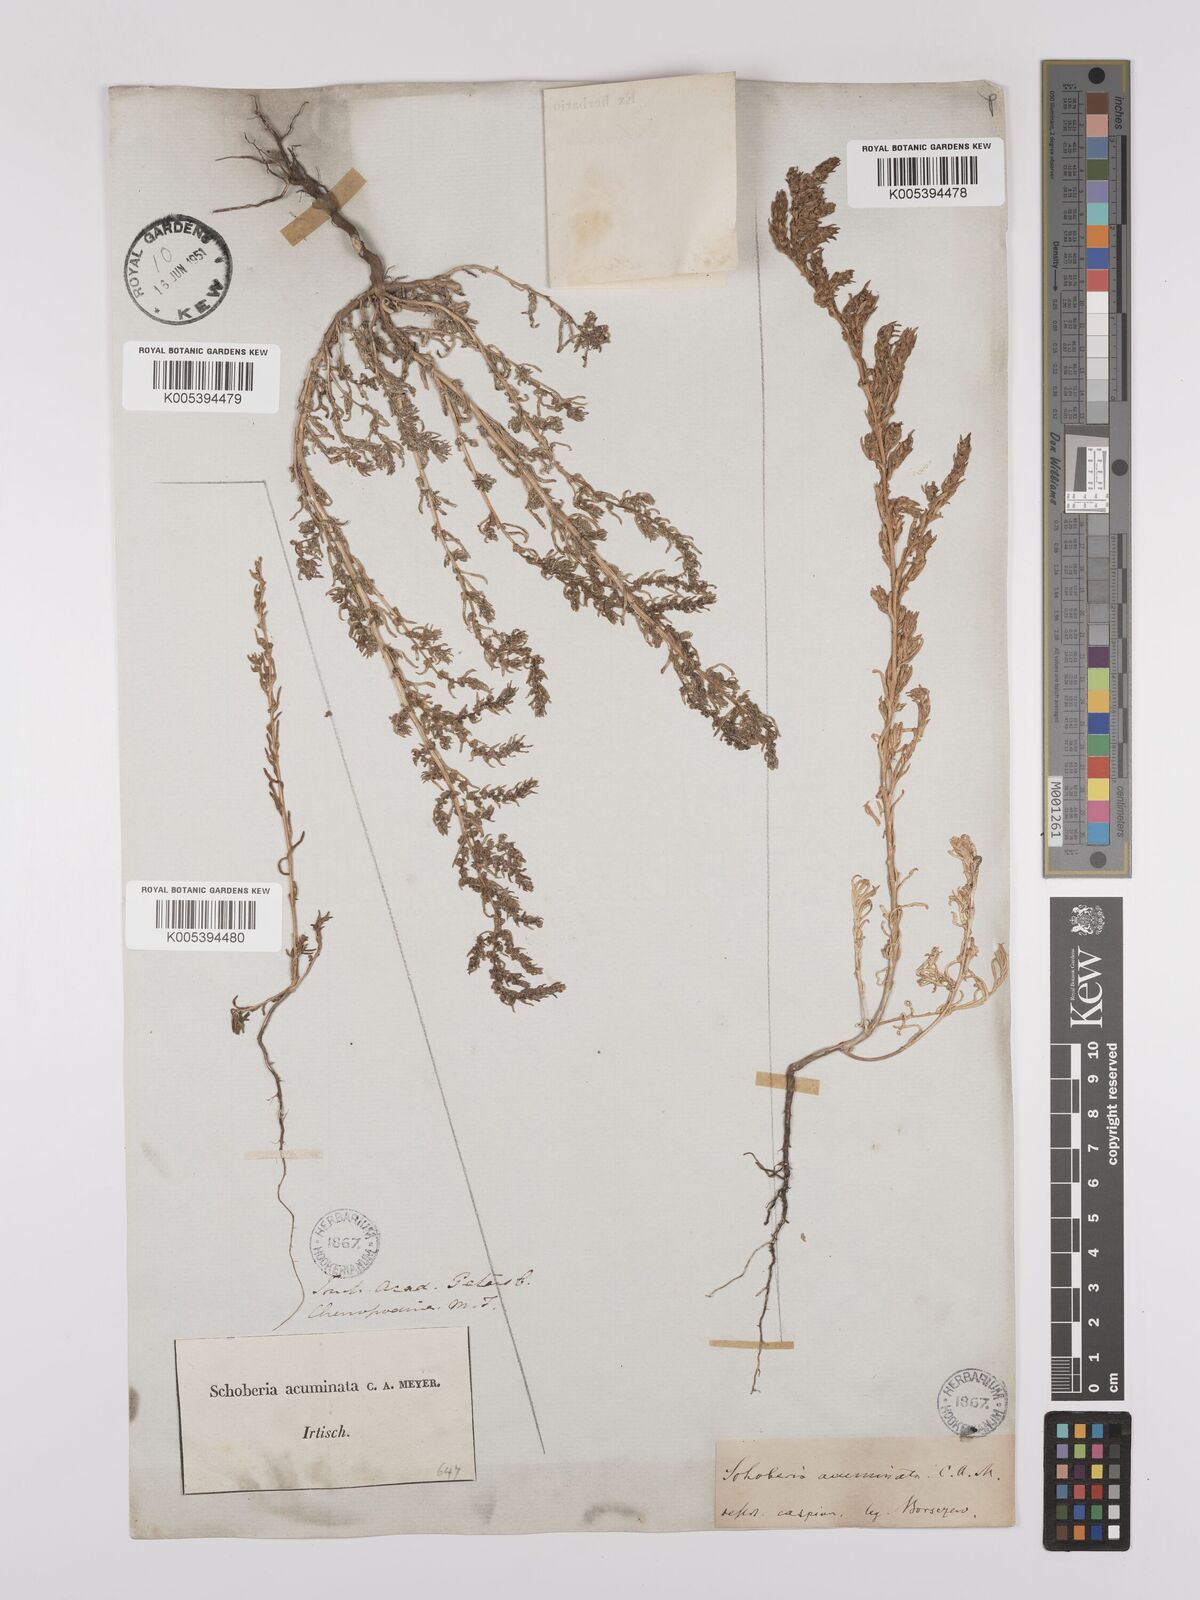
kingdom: Plantae
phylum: Tracheophyta
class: Magnoliopsida
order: Caryophyllales
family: Amaranthaceae
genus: Suaeda
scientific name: Suaeda acuminata
